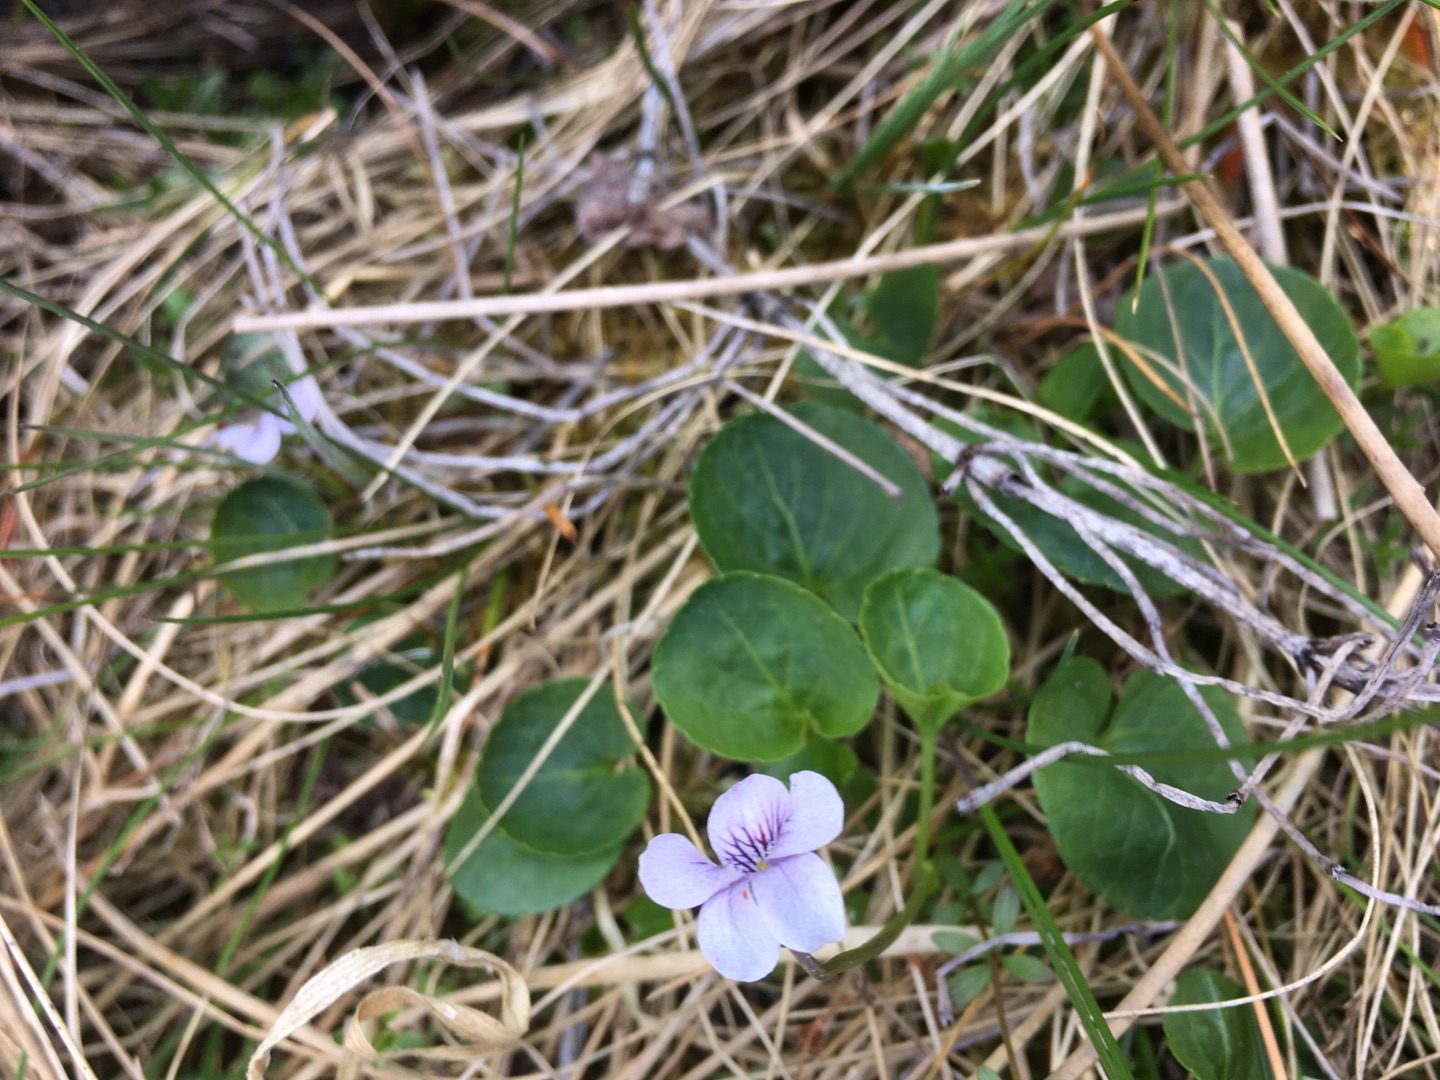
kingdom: Plantae
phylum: Tracheophyta
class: Magnoliopsida
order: Malpighiales
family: Violaceae
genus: Viola
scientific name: Viola palustris
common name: Eng-viol
